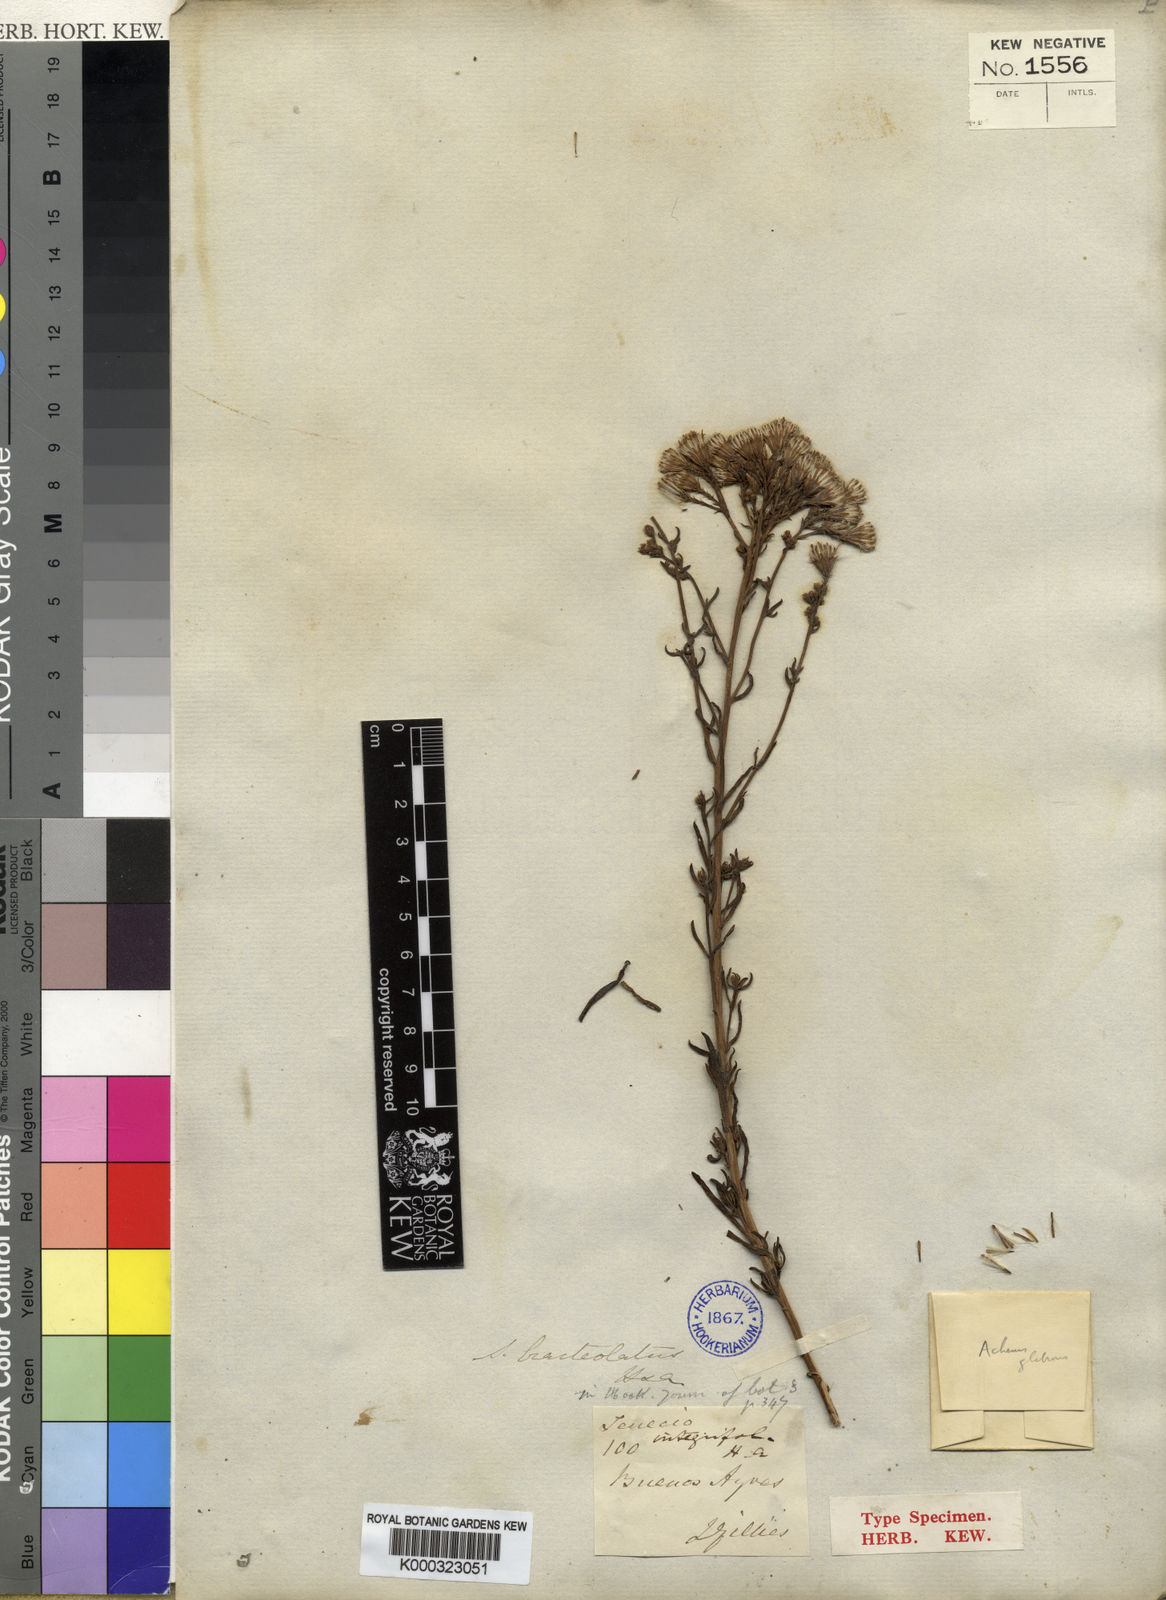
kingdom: Plantae
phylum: Tracheophyta
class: Magnoliopsida
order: Asterales
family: Asteraceae
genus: Senecio
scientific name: Senecio bracteolatus
